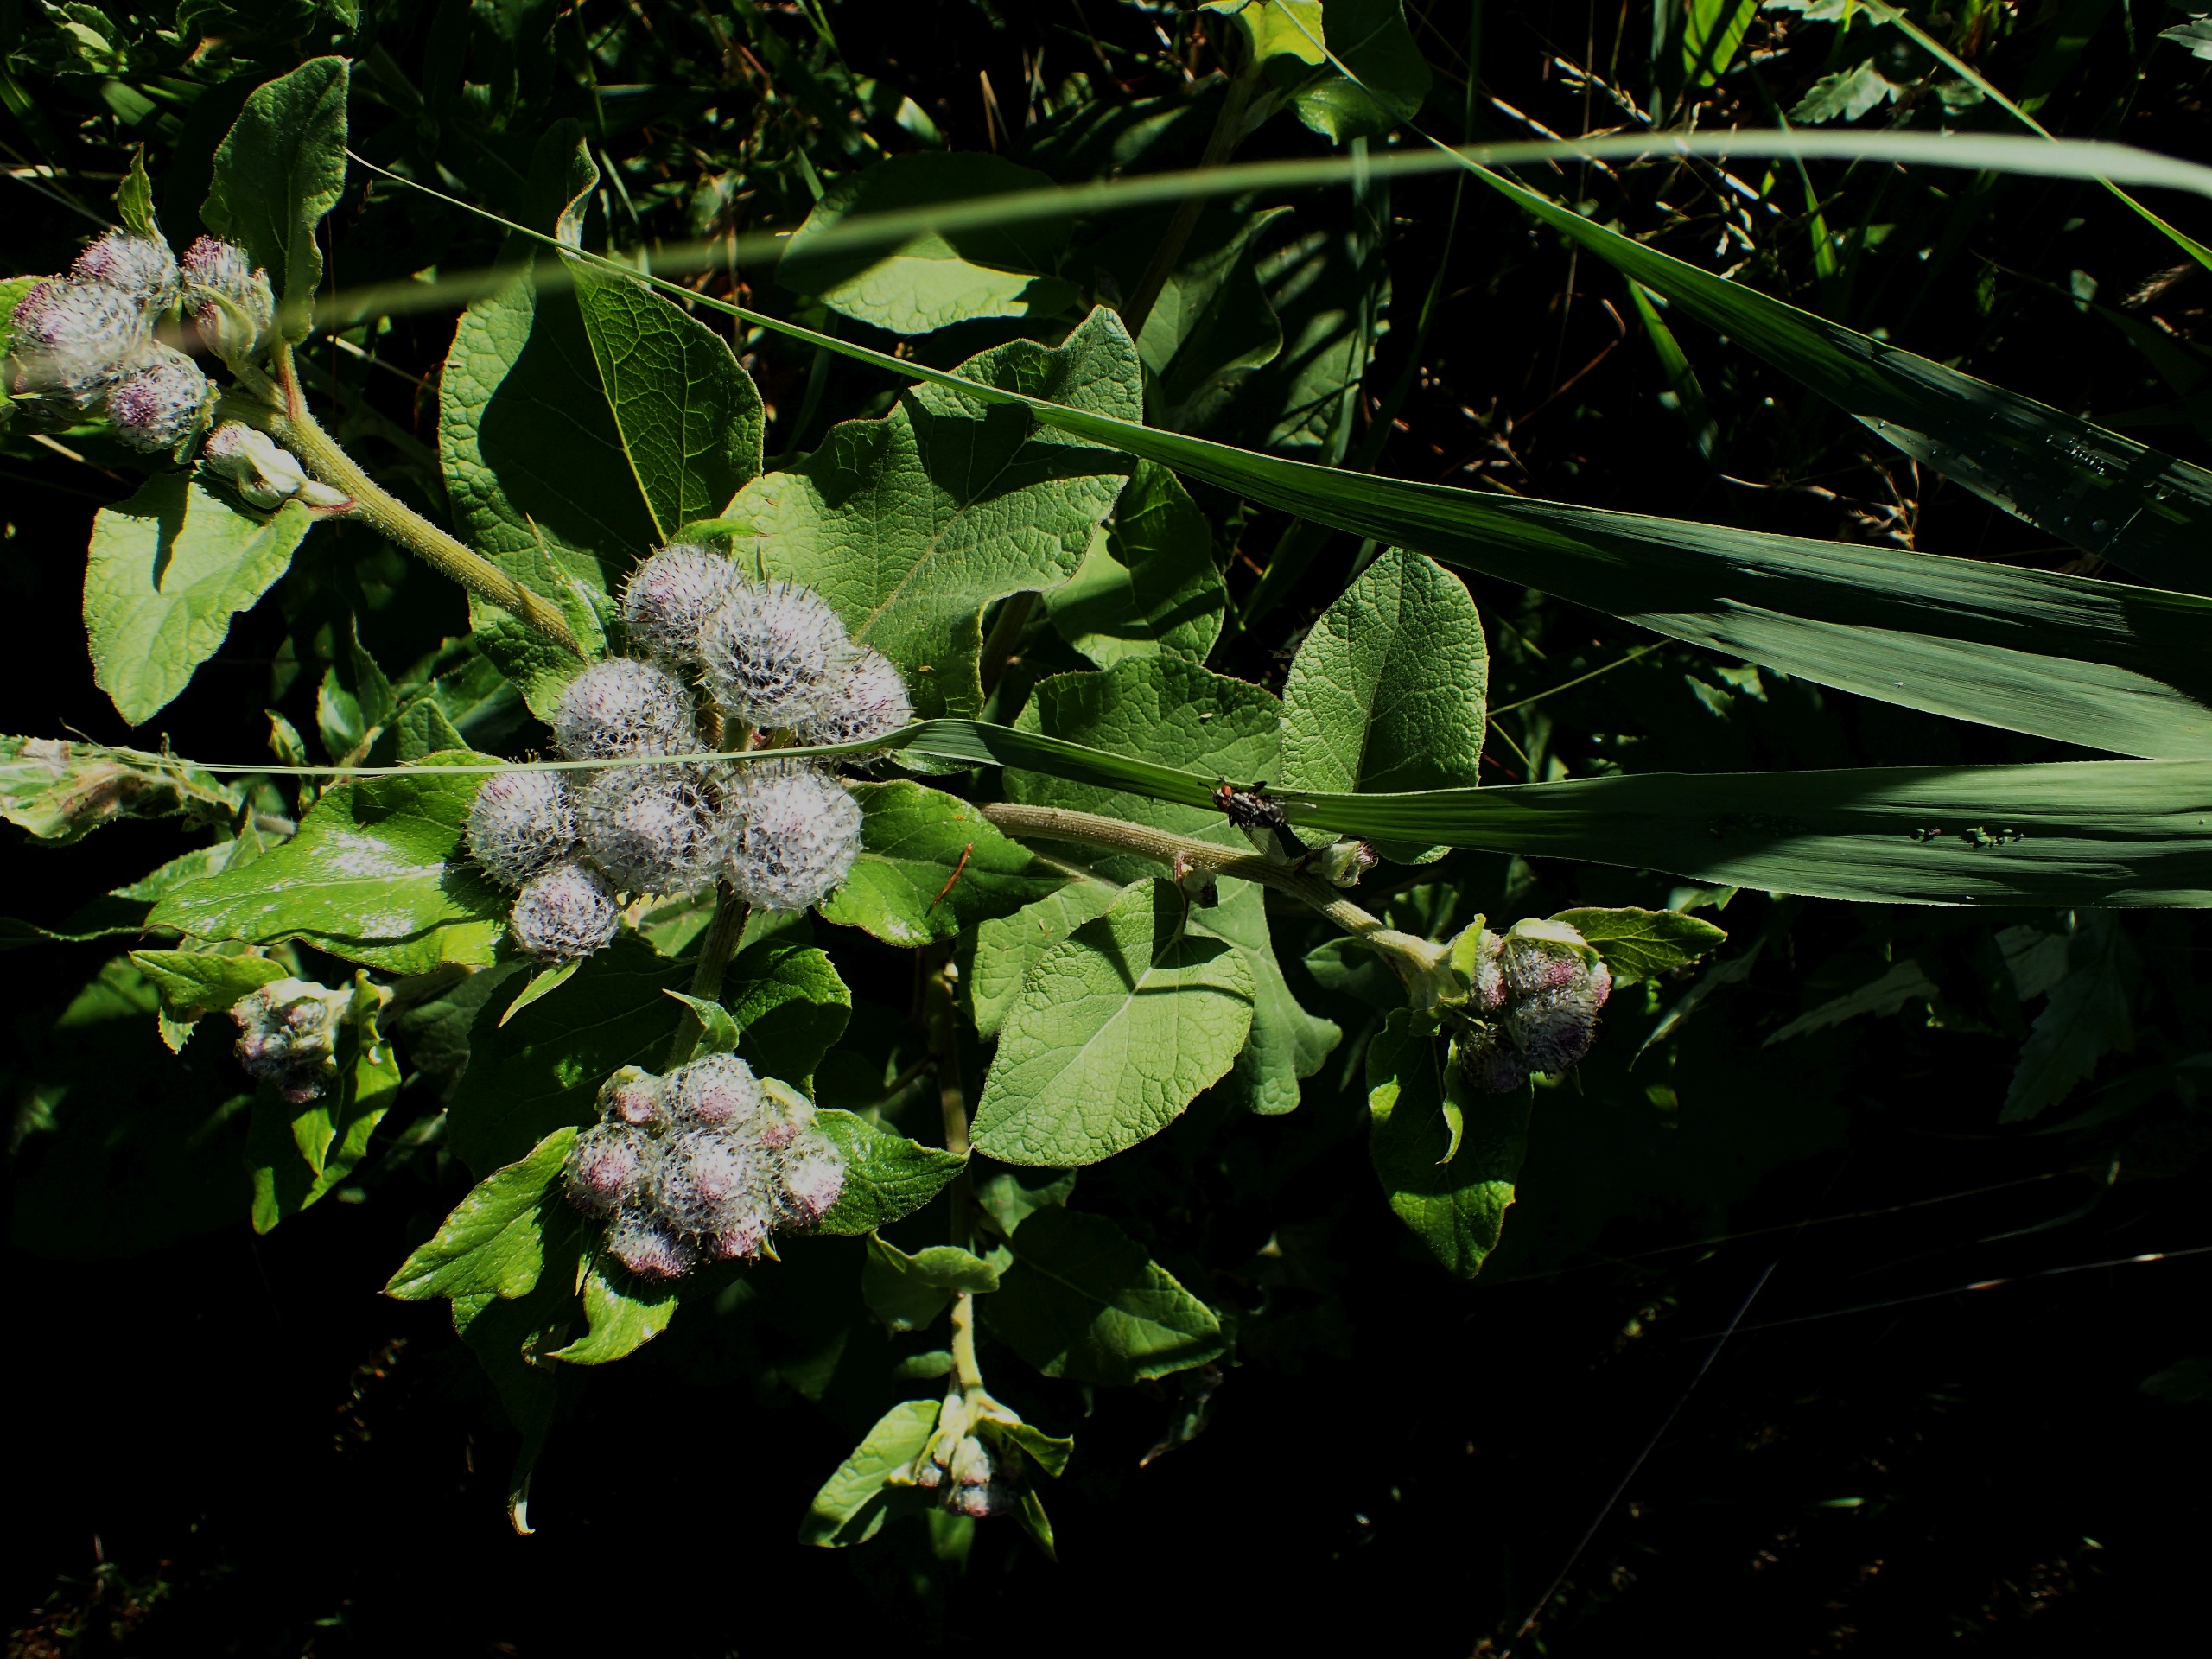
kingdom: Plantae
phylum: Tracheophyta
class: Magnoliopsida
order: Asterales
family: Asteraceae
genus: Arctium
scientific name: Arctium tomentosum
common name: Filtet burre
